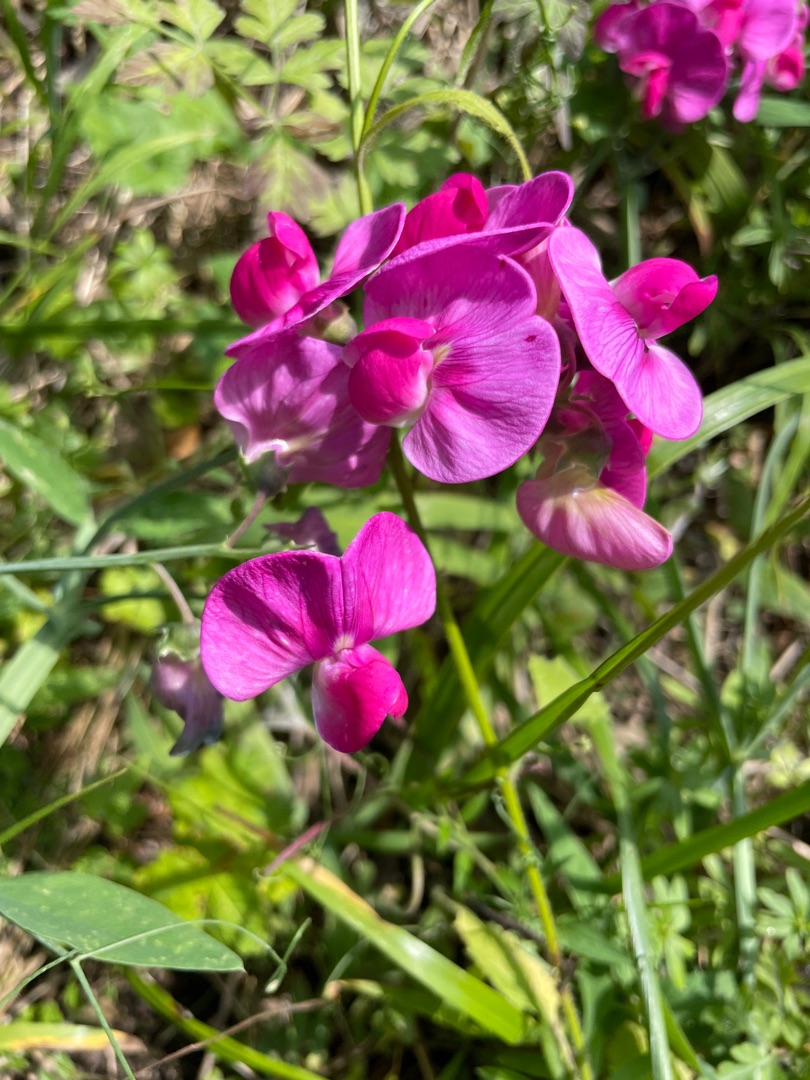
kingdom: Plantae
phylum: Tracheophyta
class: Magnoliopsida
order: Fabales
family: Fabaceae
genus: Lathyrus
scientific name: Lathyrus
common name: Fladbælgslægten
